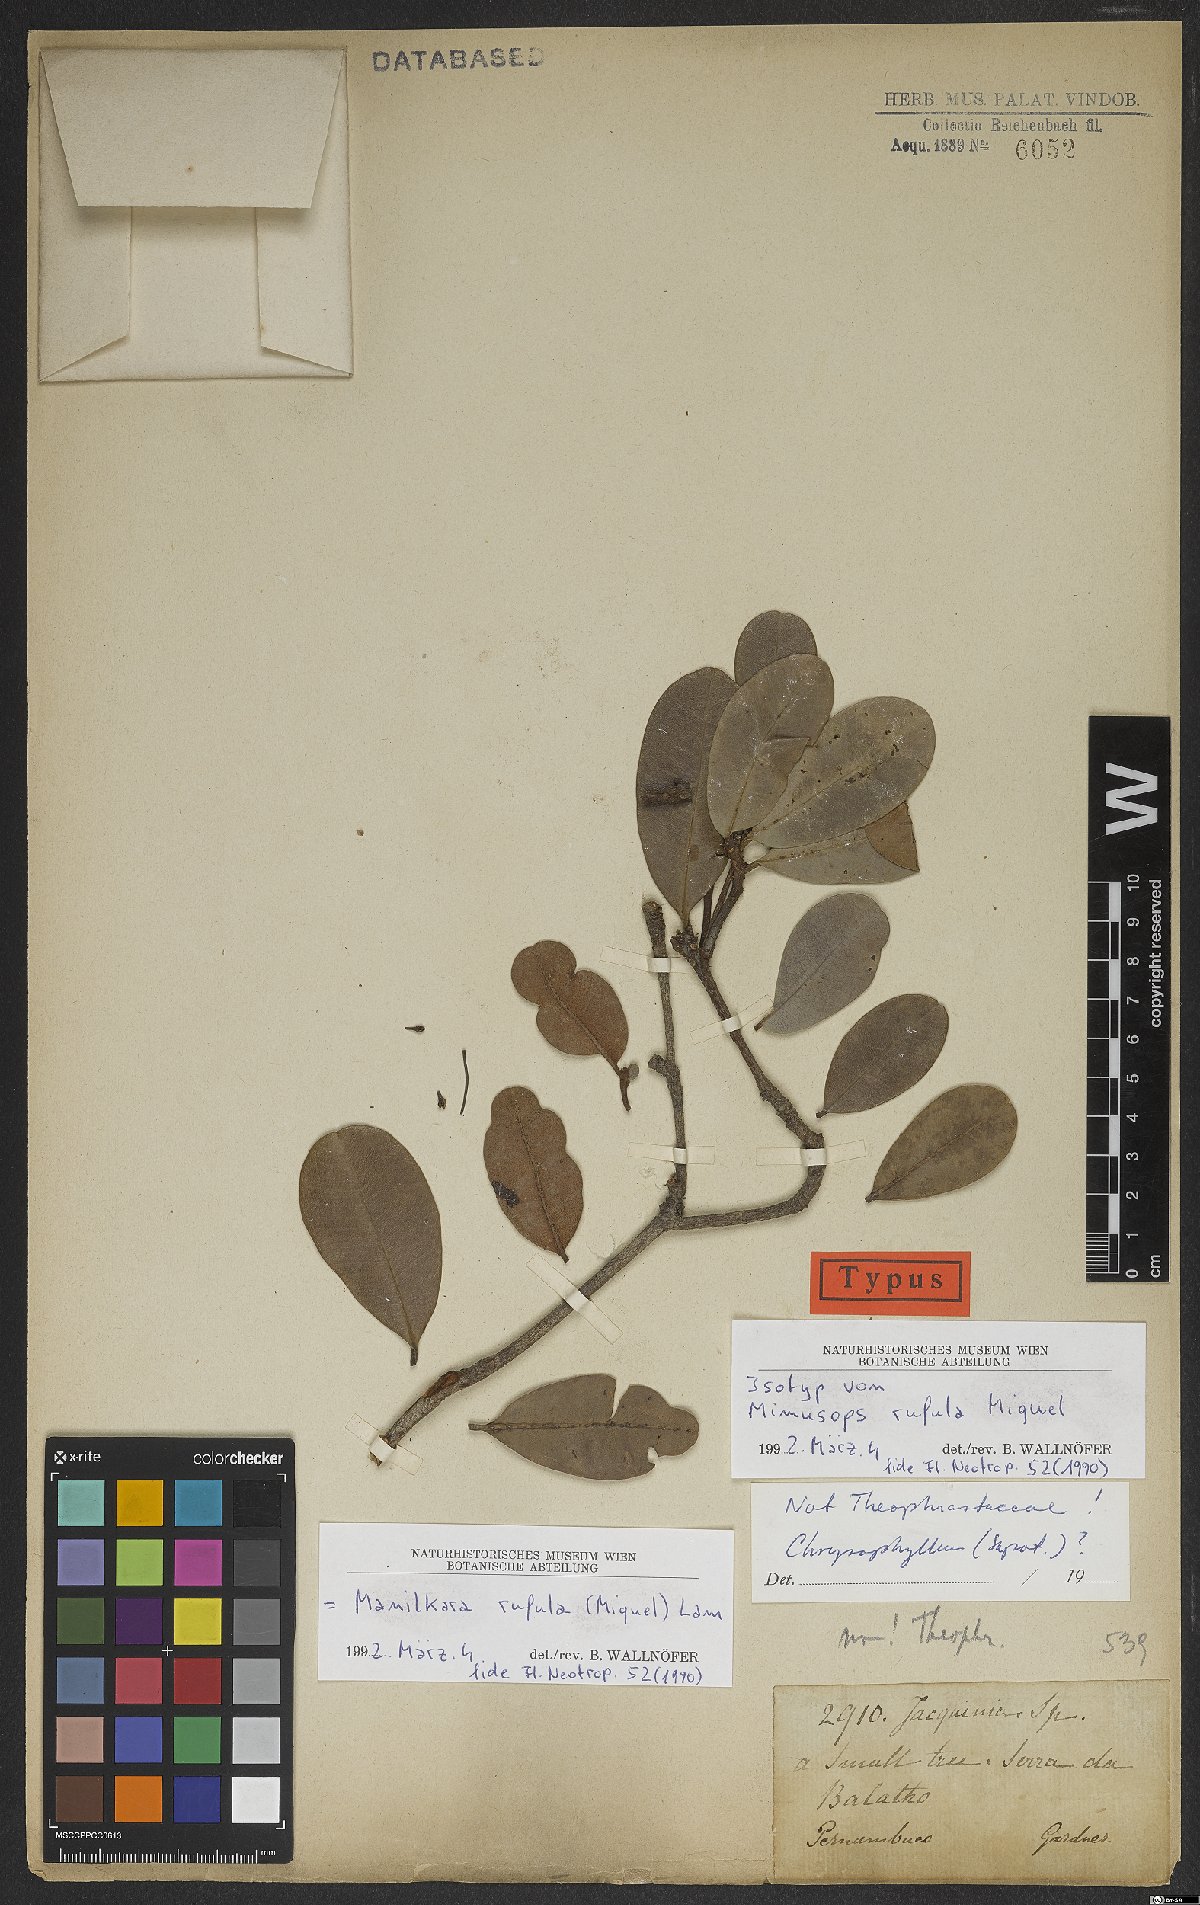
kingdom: Plantae
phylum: Tracheophyta
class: Magnoliopsida
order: Ericales
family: Sapotaceae
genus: Manilkara
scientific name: Manilkara rufula
